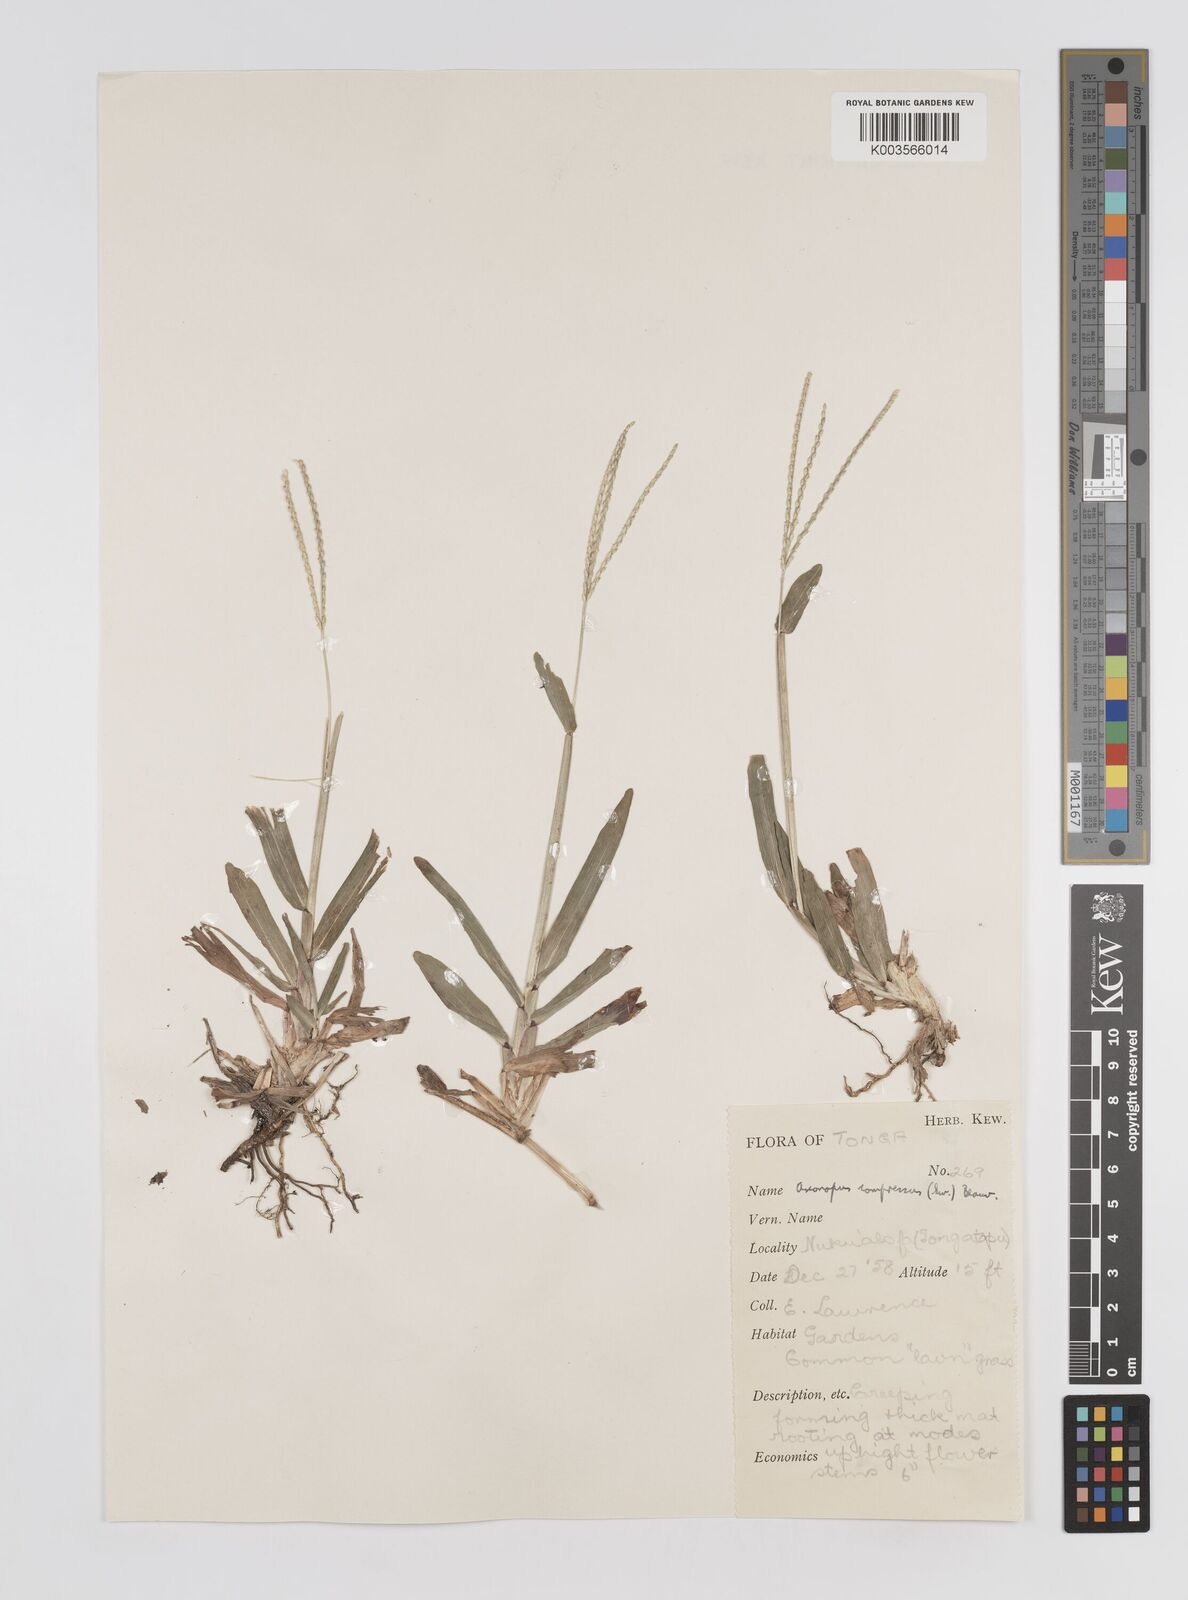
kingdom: Plantae
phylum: Tracheophyta
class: Liliopsida
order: Poales
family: Poaceae
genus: Axonopus
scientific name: Axonopus compressus
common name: American carpet grass
